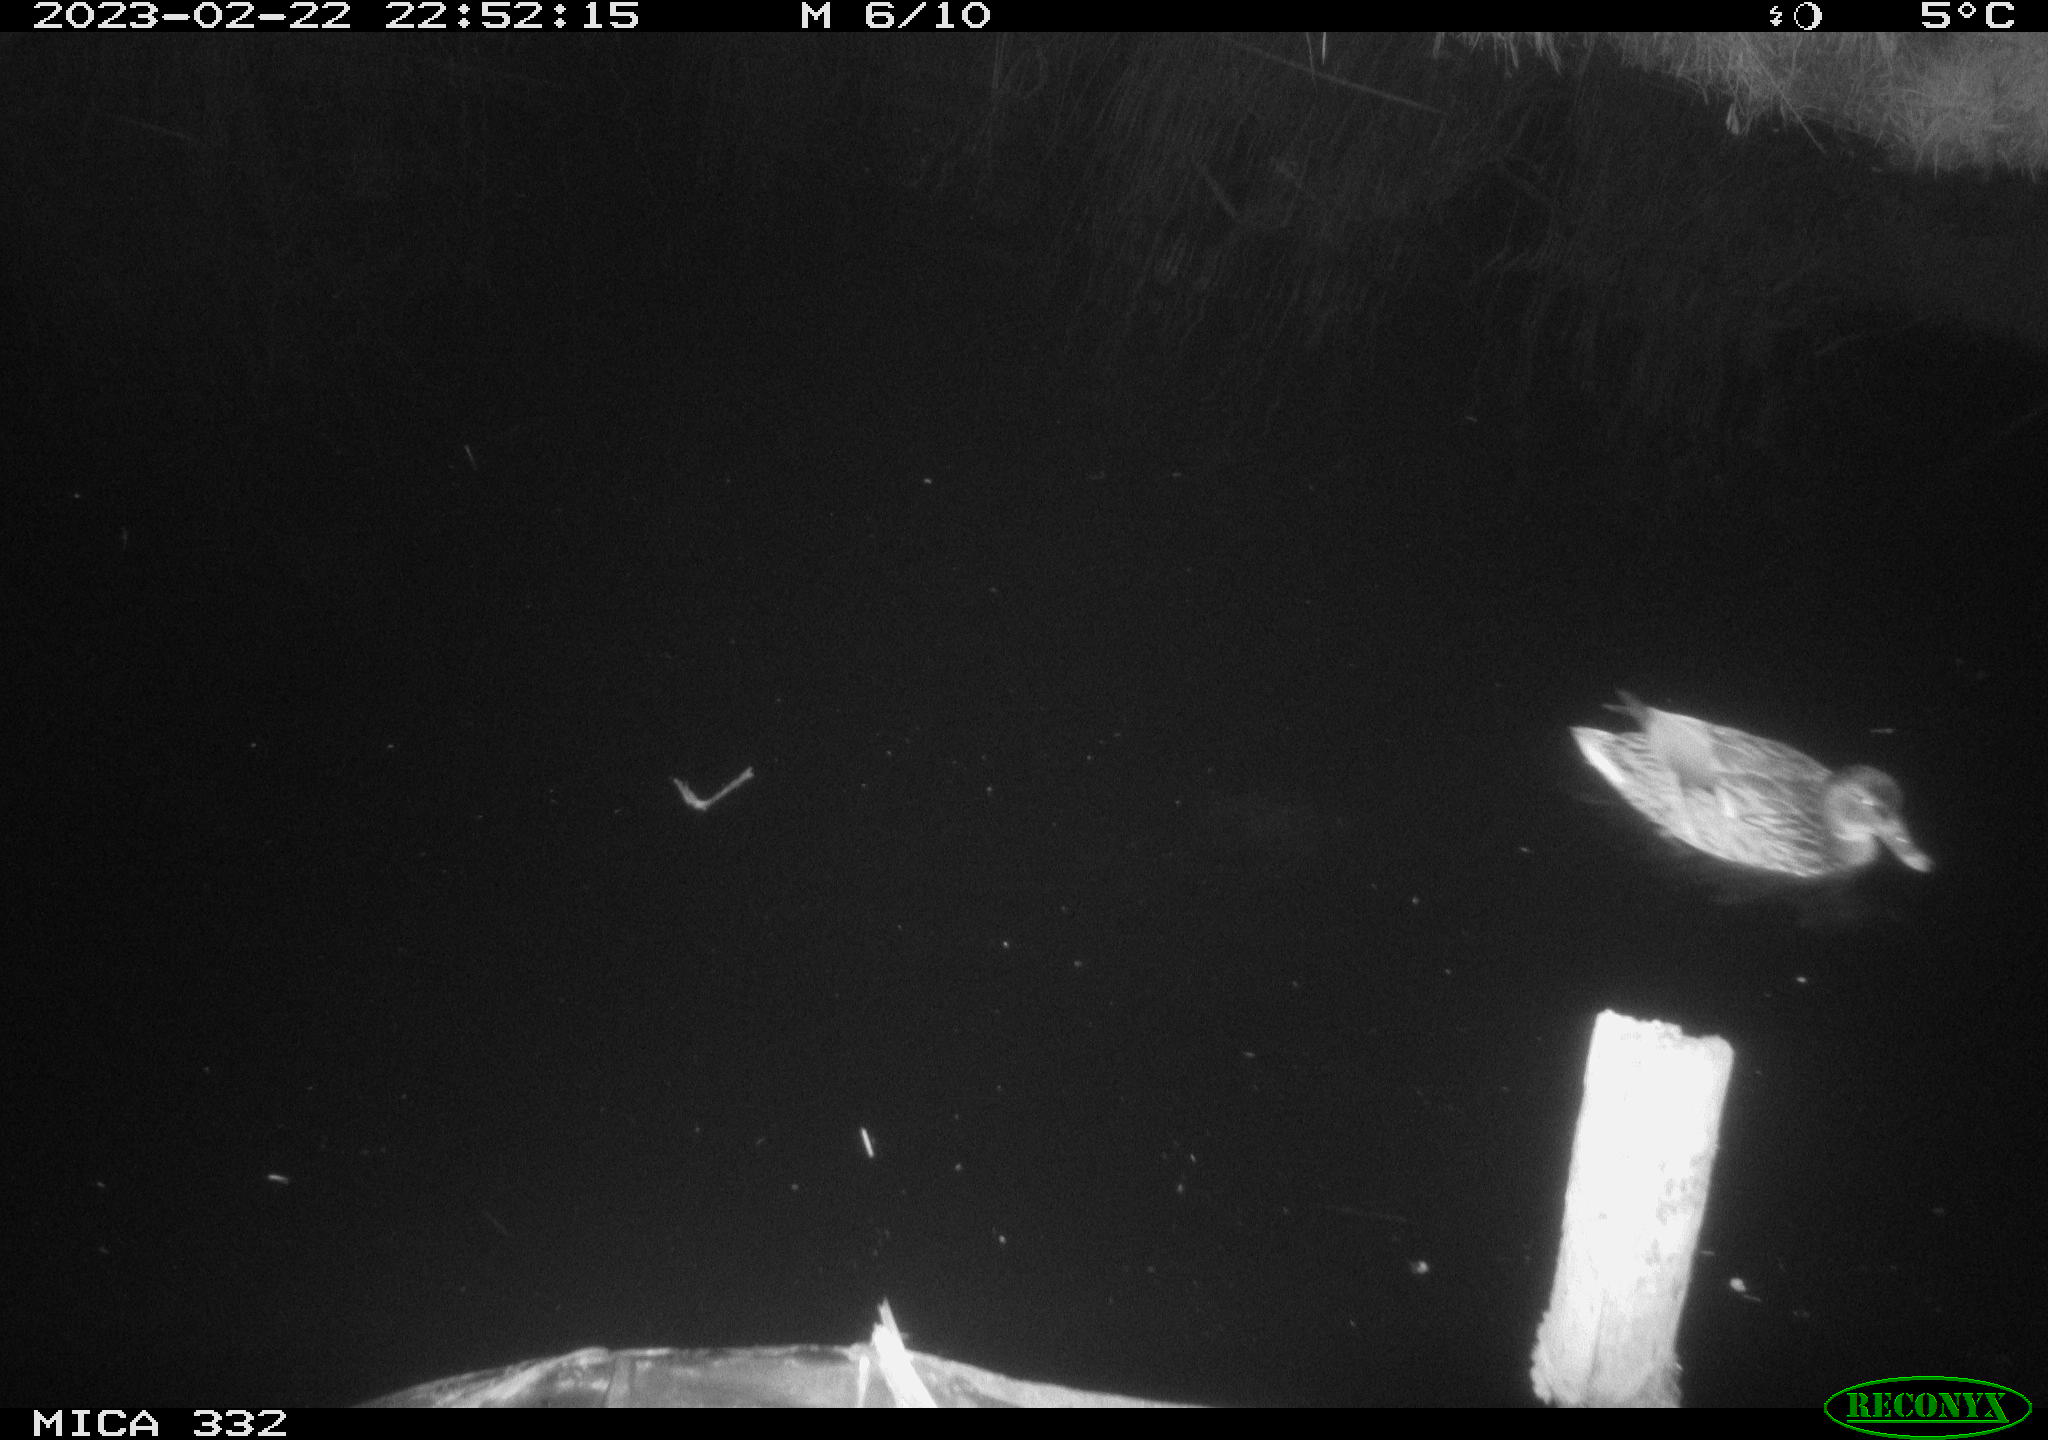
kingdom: Animalia
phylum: Chordata
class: Aves
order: Anseriformes
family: Anatidae
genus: Anas
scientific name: Anas
